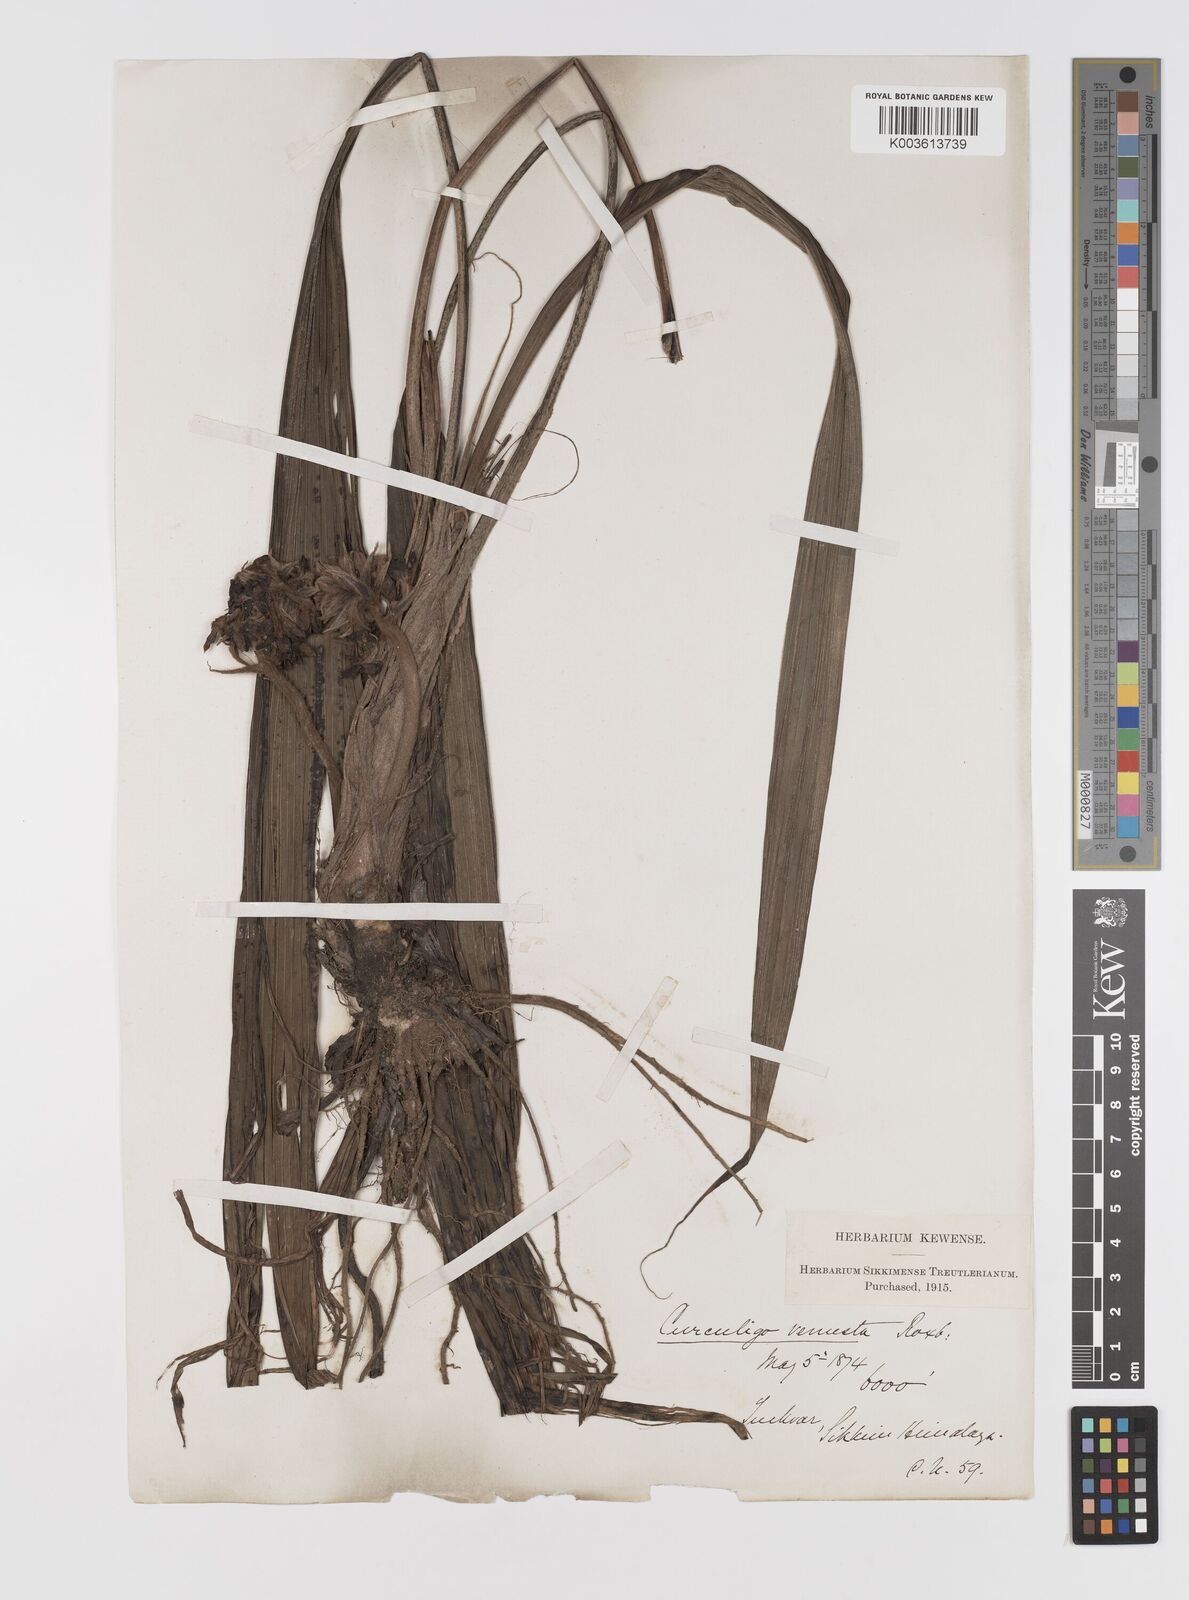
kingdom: Plantae
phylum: Tracheophyta
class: Liliopsida
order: Asparagales
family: Hypoxidaceae
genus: Curculigo
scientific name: Curculigo capitulata
